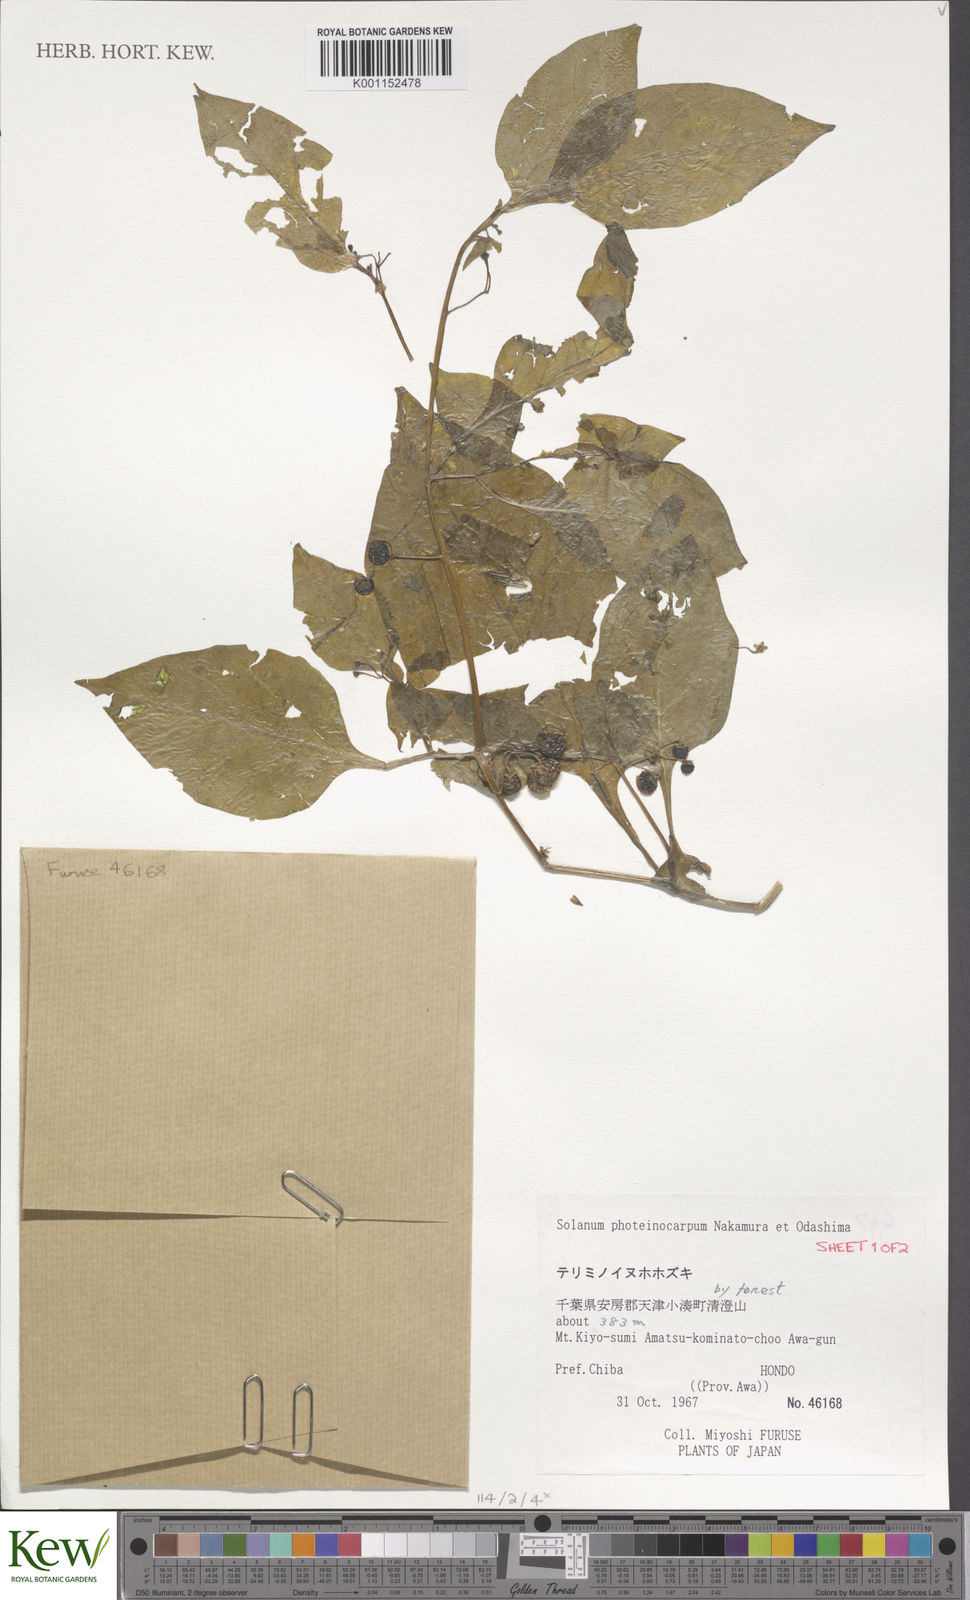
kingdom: Plantae
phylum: Tracheophyta
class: Magnoliopsida
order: Solanales
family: Solanaceae
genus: Solanum
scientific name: Solanum americanum
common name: American black nightshade
